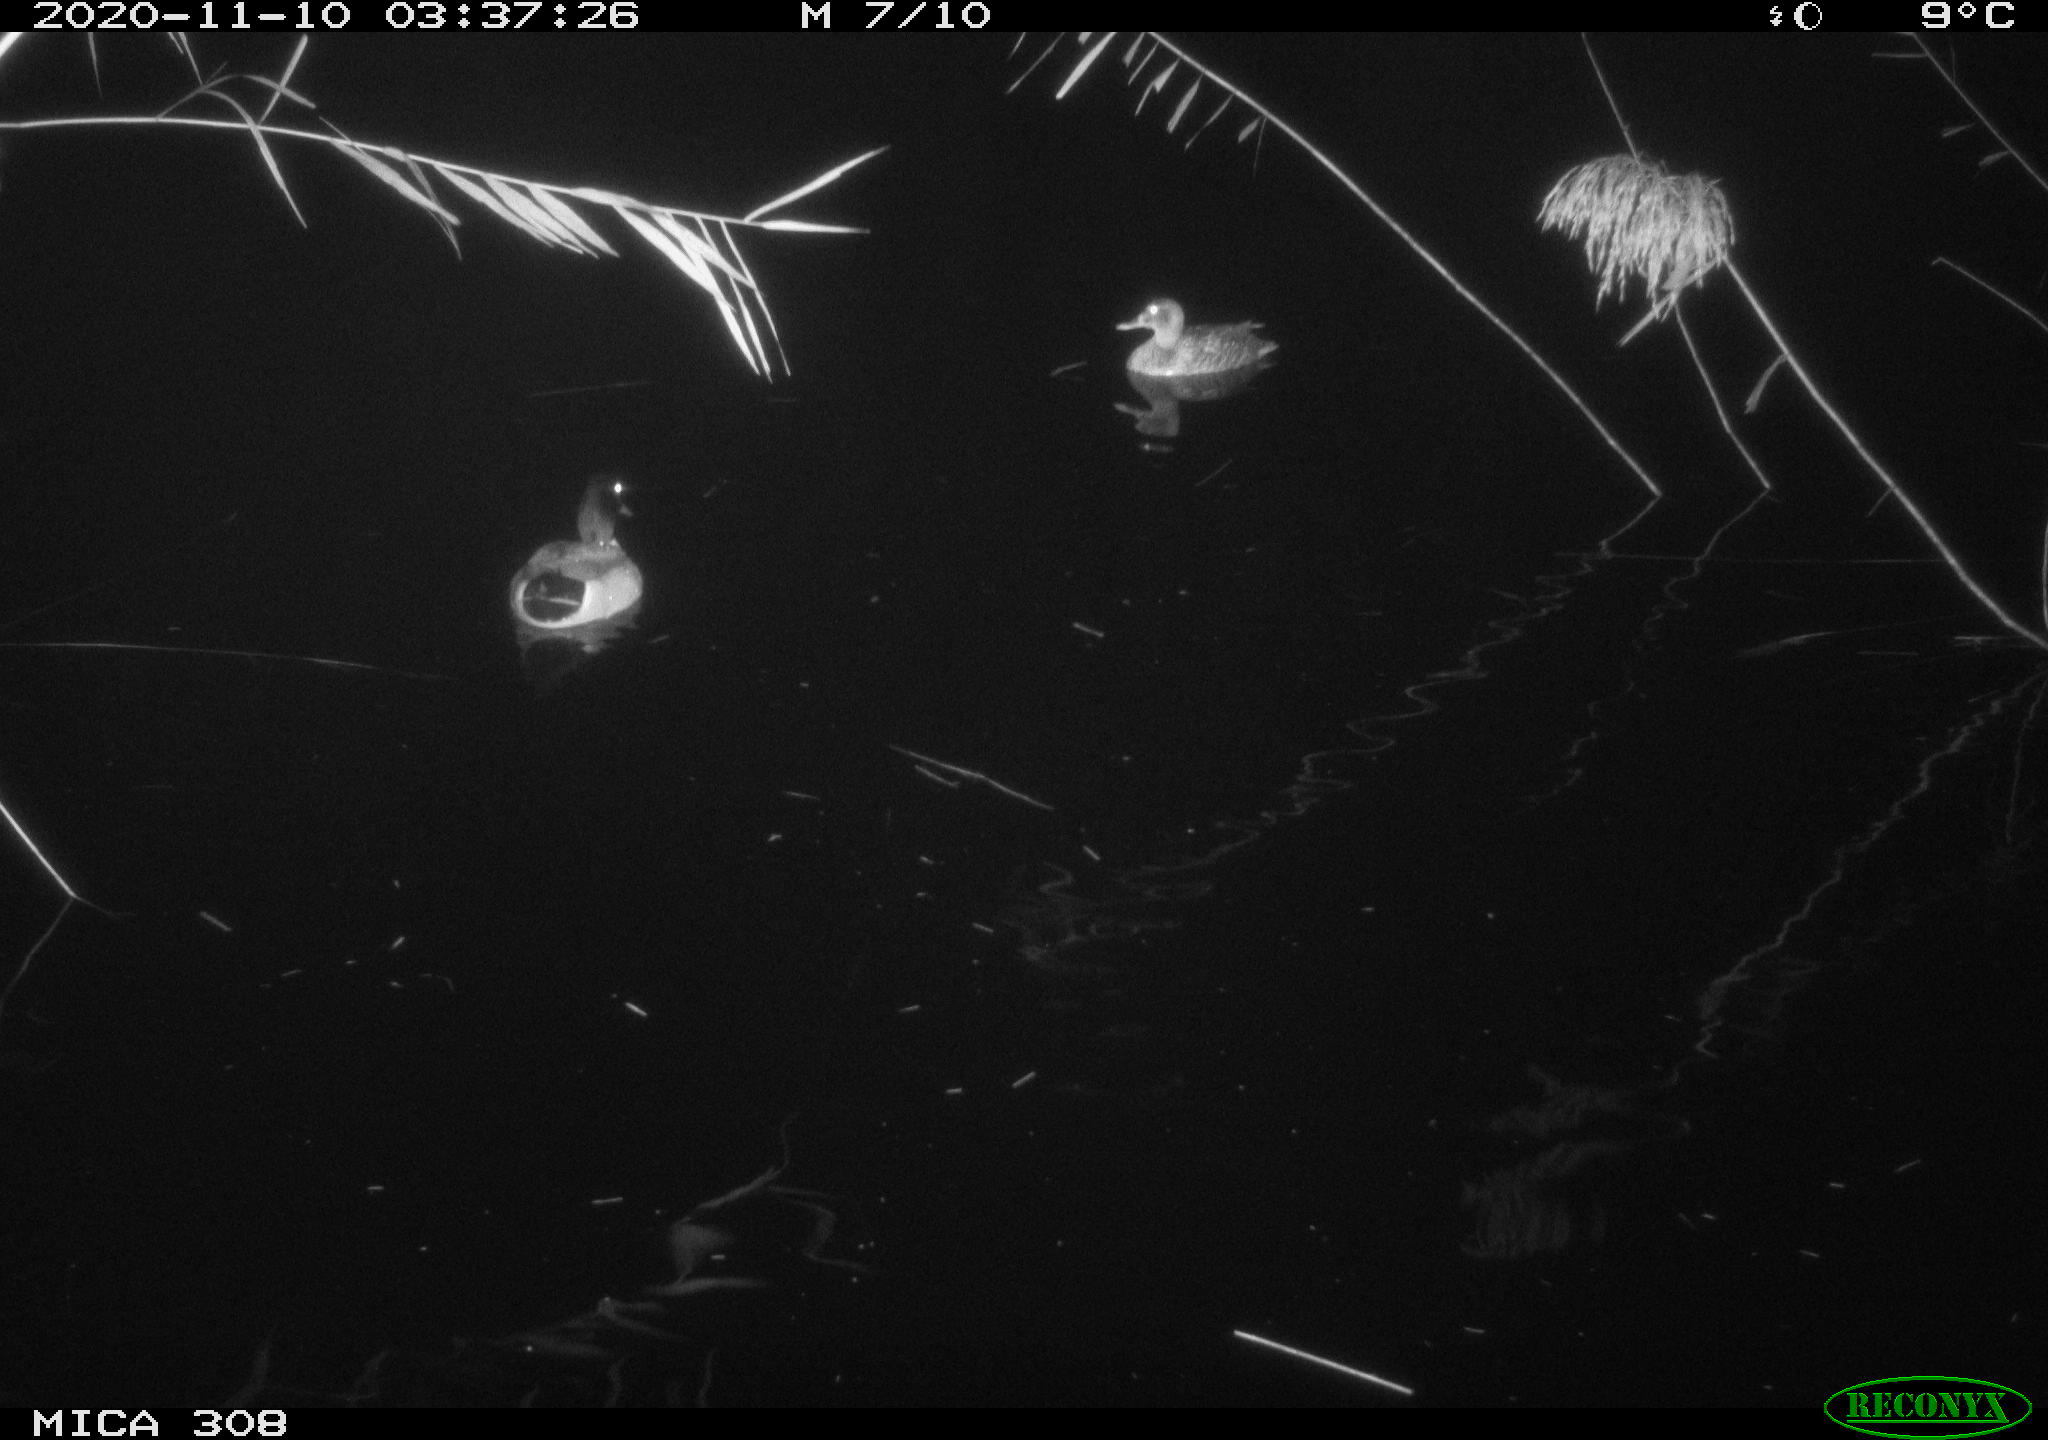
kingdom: Animalia
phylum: Chordata
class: Aves
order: Anseriformes
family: Anatidae
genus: Anas
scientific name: Anas platyrhynchos
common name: Mallard
